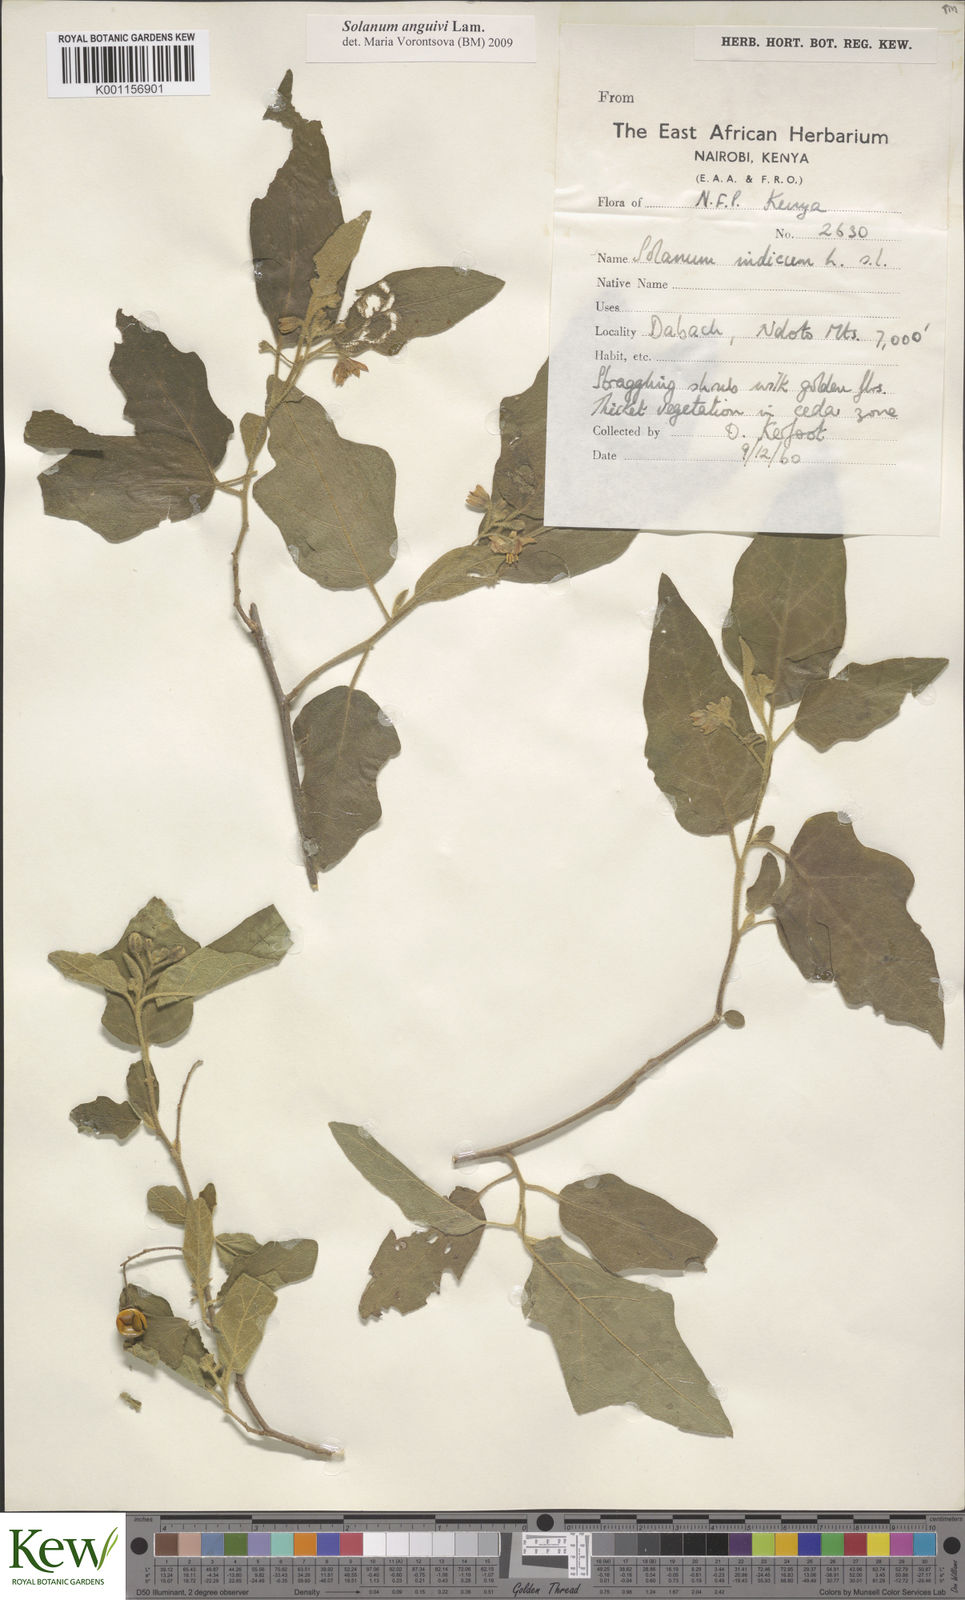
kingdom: Plantae
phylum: Tracheophyta
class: Magnoliopsida
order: Solanales
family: Solanaceae
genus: Solanum
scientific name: Solanum anguivi
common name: Forest bitterberry
